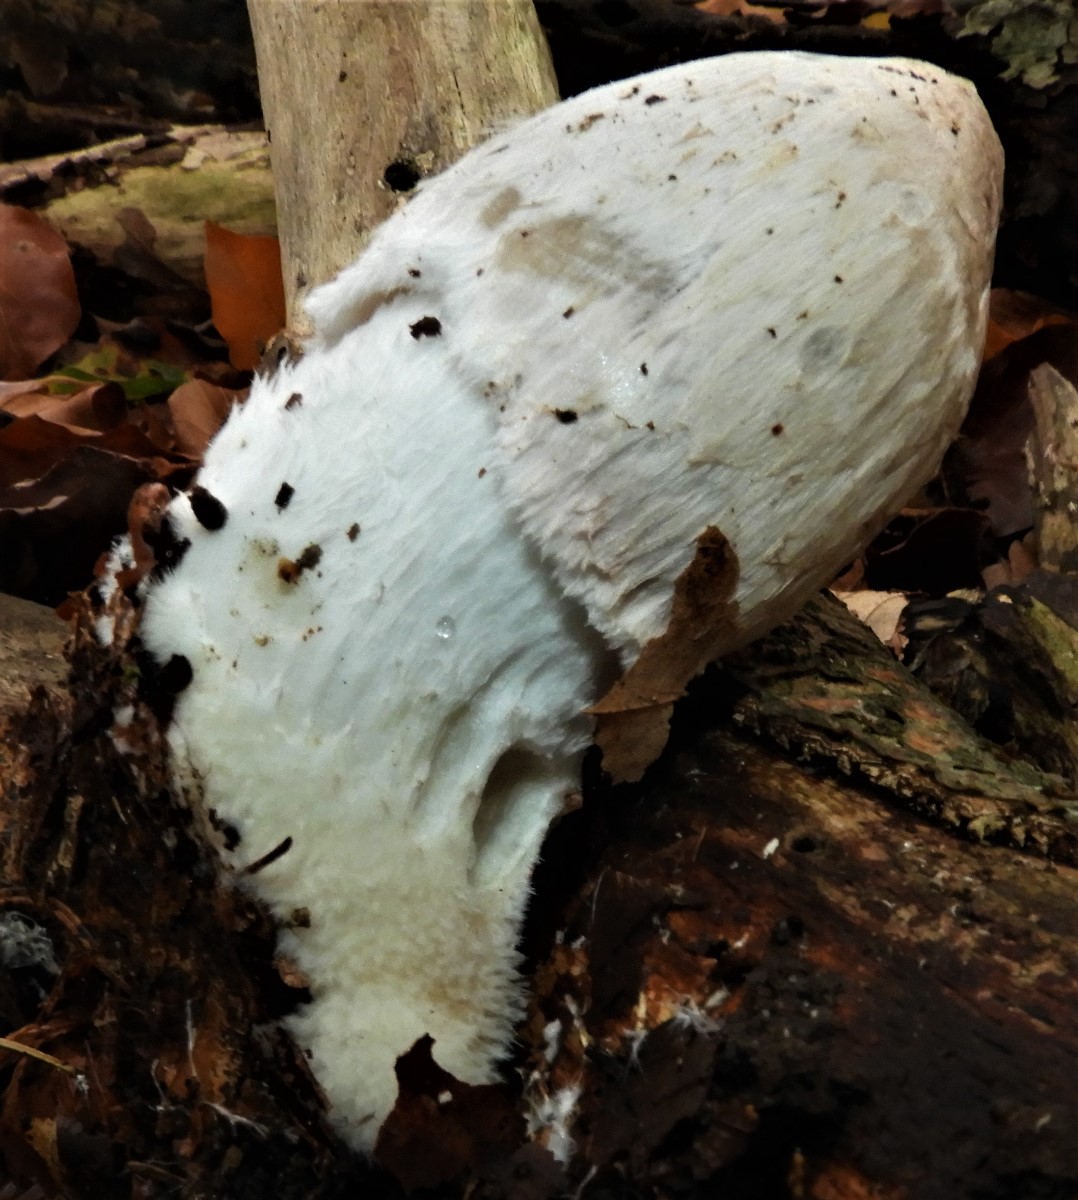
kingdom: Fungi
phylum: Basidiomycota
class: Agaricomycetes
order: Agaricales
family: Psathyrellaceae
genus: Coprinopsis
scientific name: Coprinopsis picacea
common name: skade-blækhat
